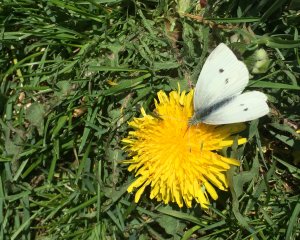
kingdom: Animalia
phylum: Arthropoda
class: Insecta
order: Lepidoptera
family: Pieridae
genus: Pieris
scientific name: Pieris rapae
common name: Cabbage White
